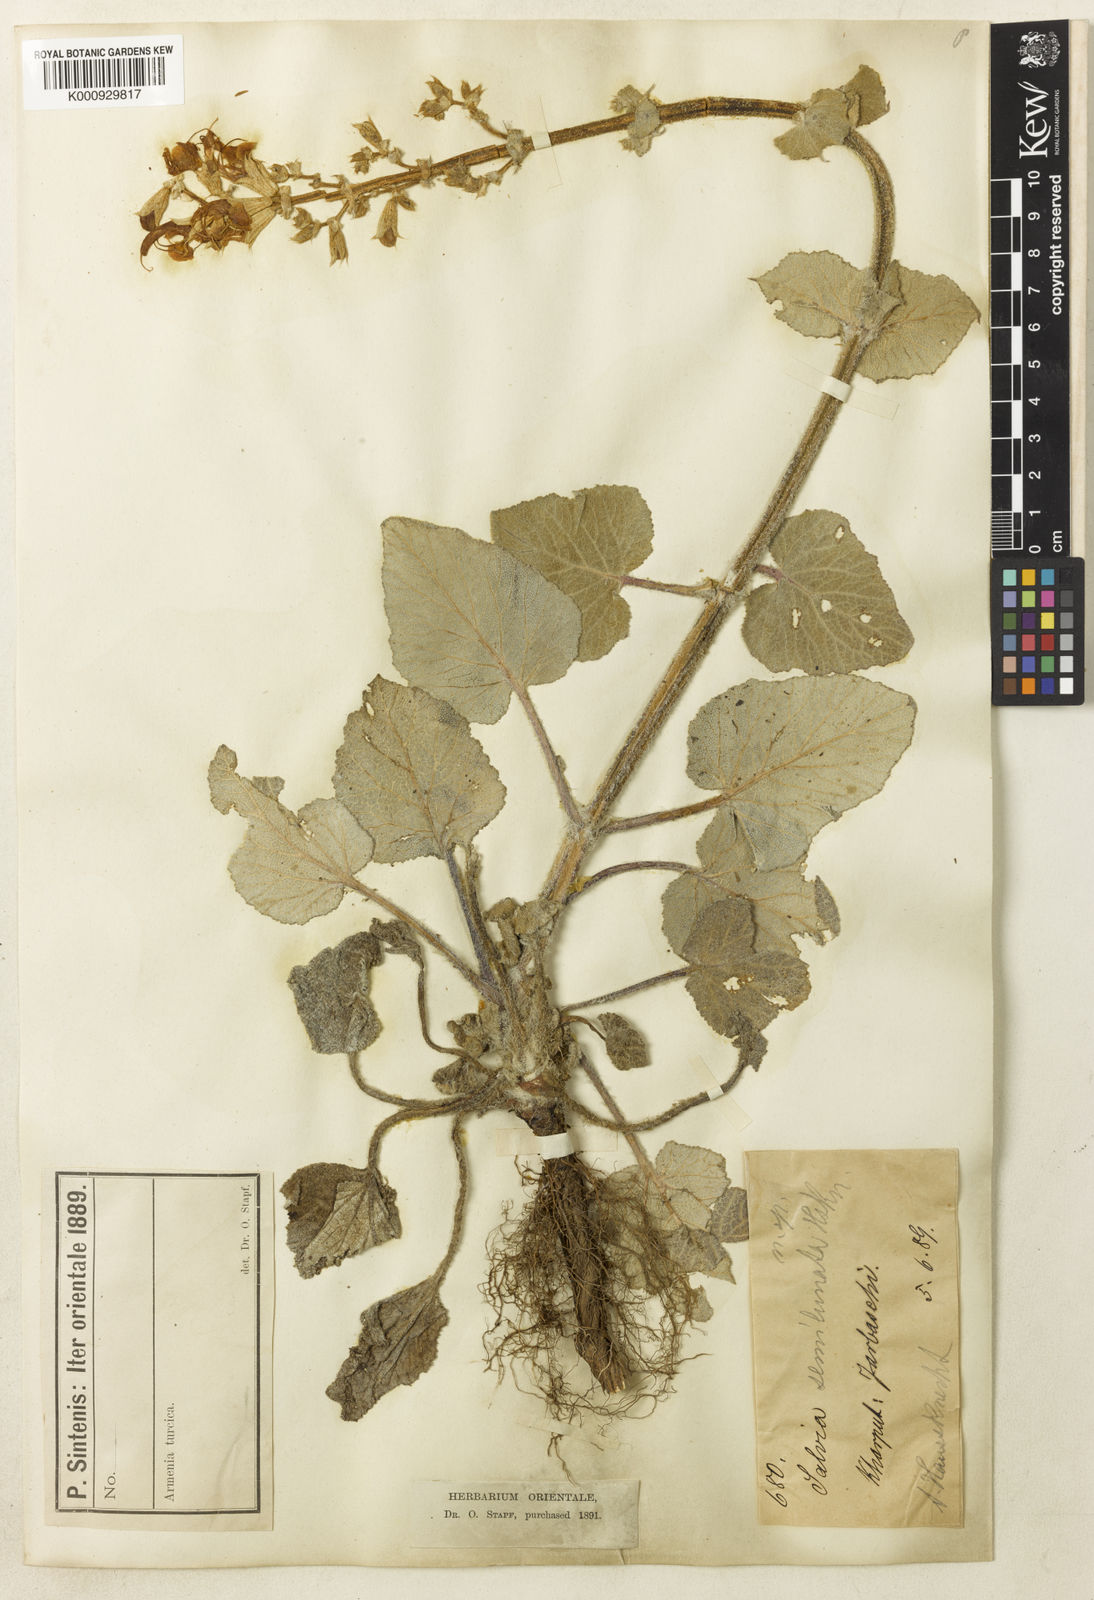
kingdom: Plantae
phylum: Tracheophyta
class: Magnoliopsida
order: Lamiales
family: Lamiaceae
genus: Salvia
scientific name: Salvia
